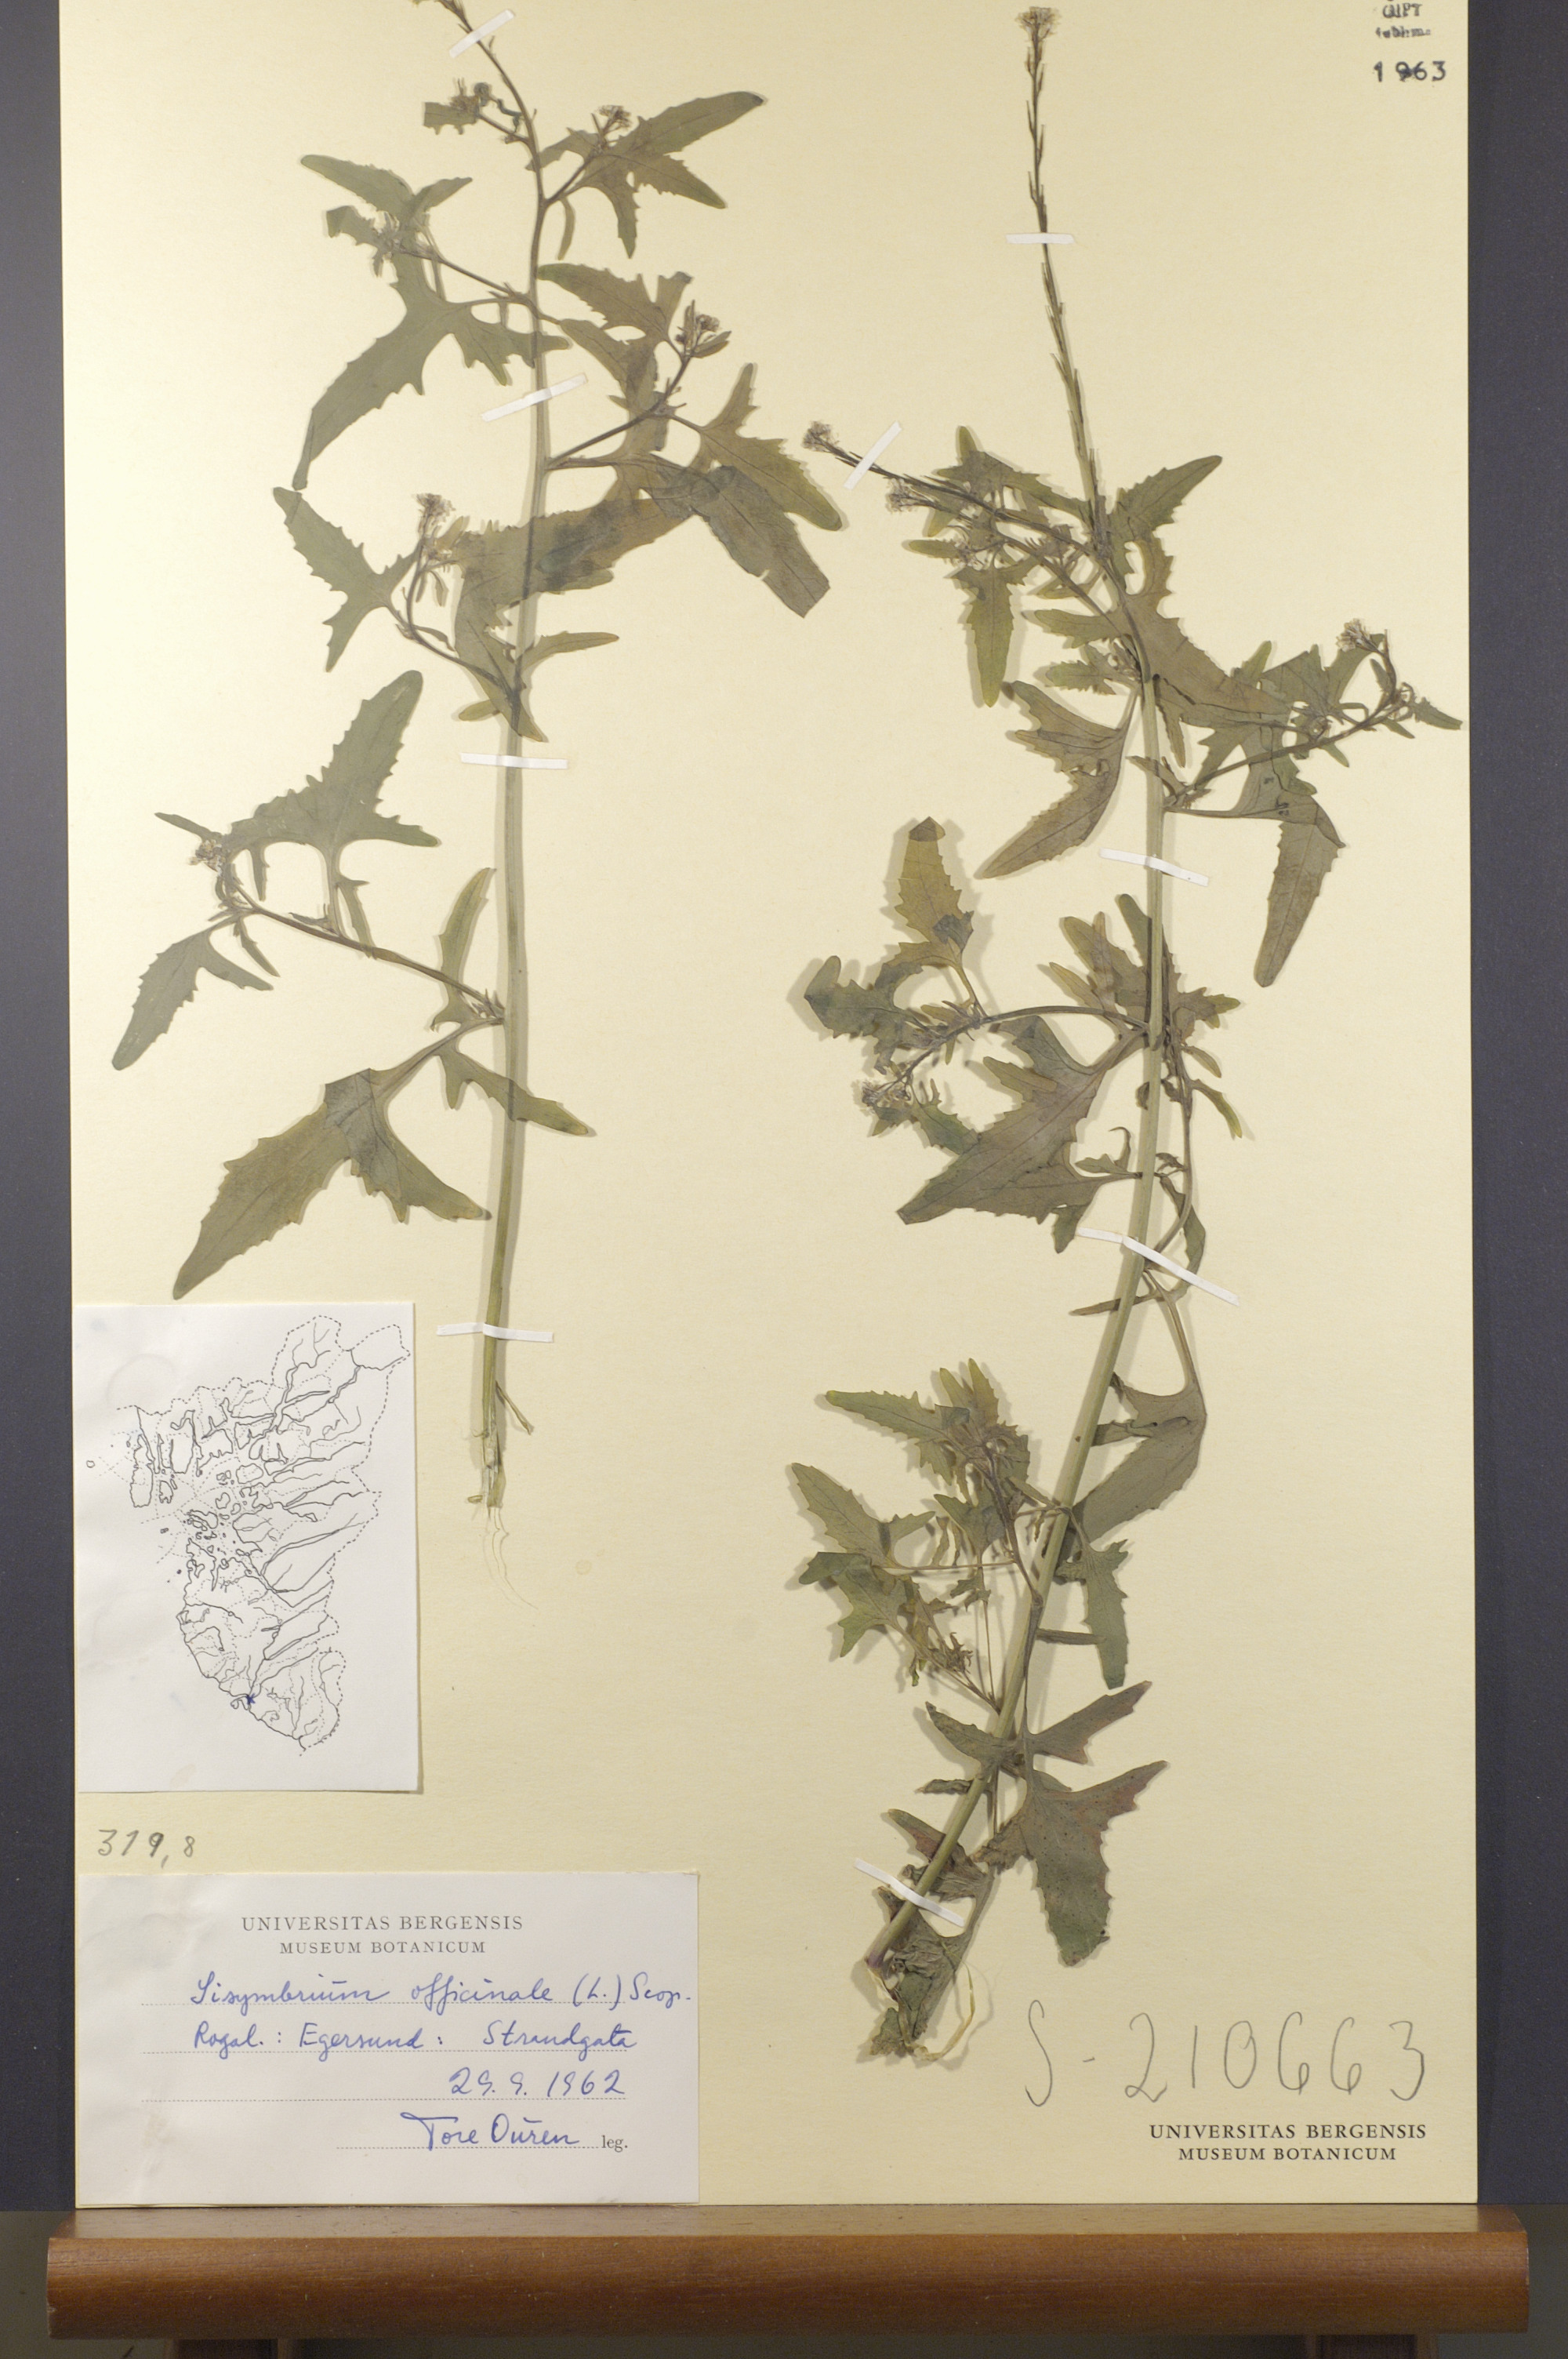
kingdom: Plantae
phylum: Tracheophyta
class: Magnoliopsida
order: Brassicales
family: Brassicaceae
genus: Sisymbrium
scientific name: Sisymbrium officinale
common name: Hedge mustard
